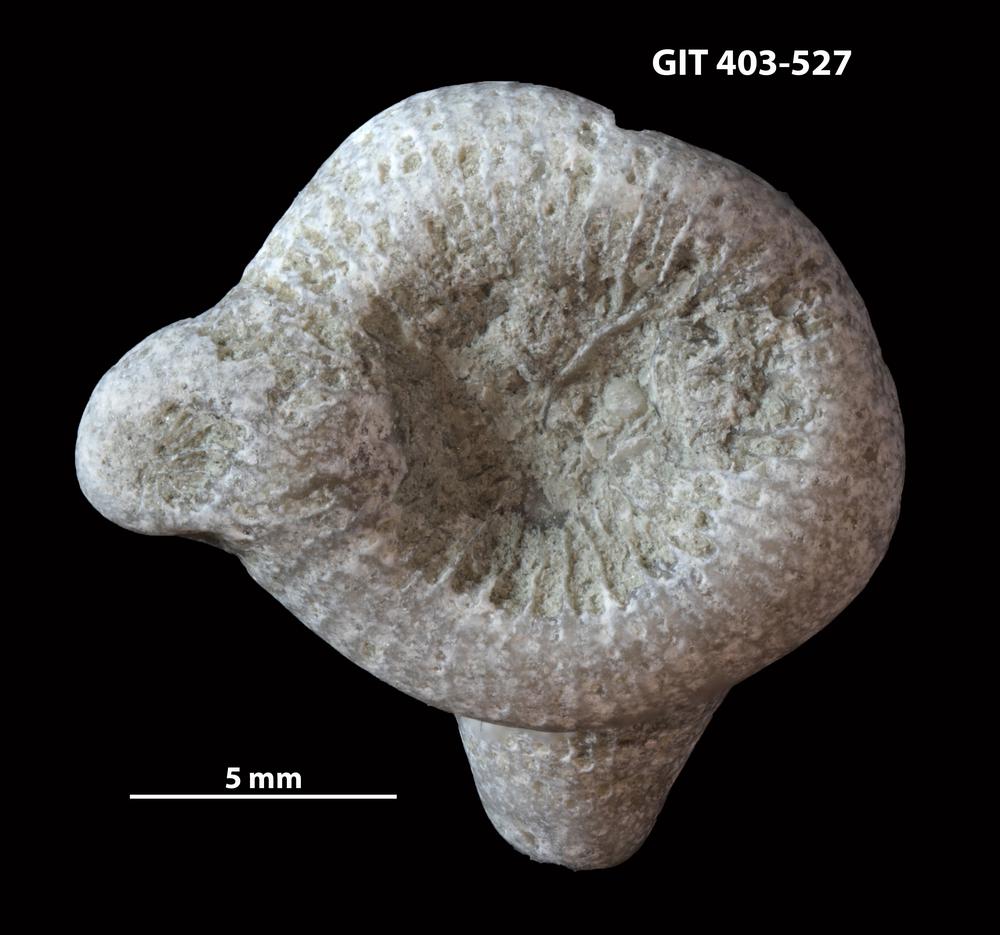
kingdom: Animalia
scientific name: Animalia
